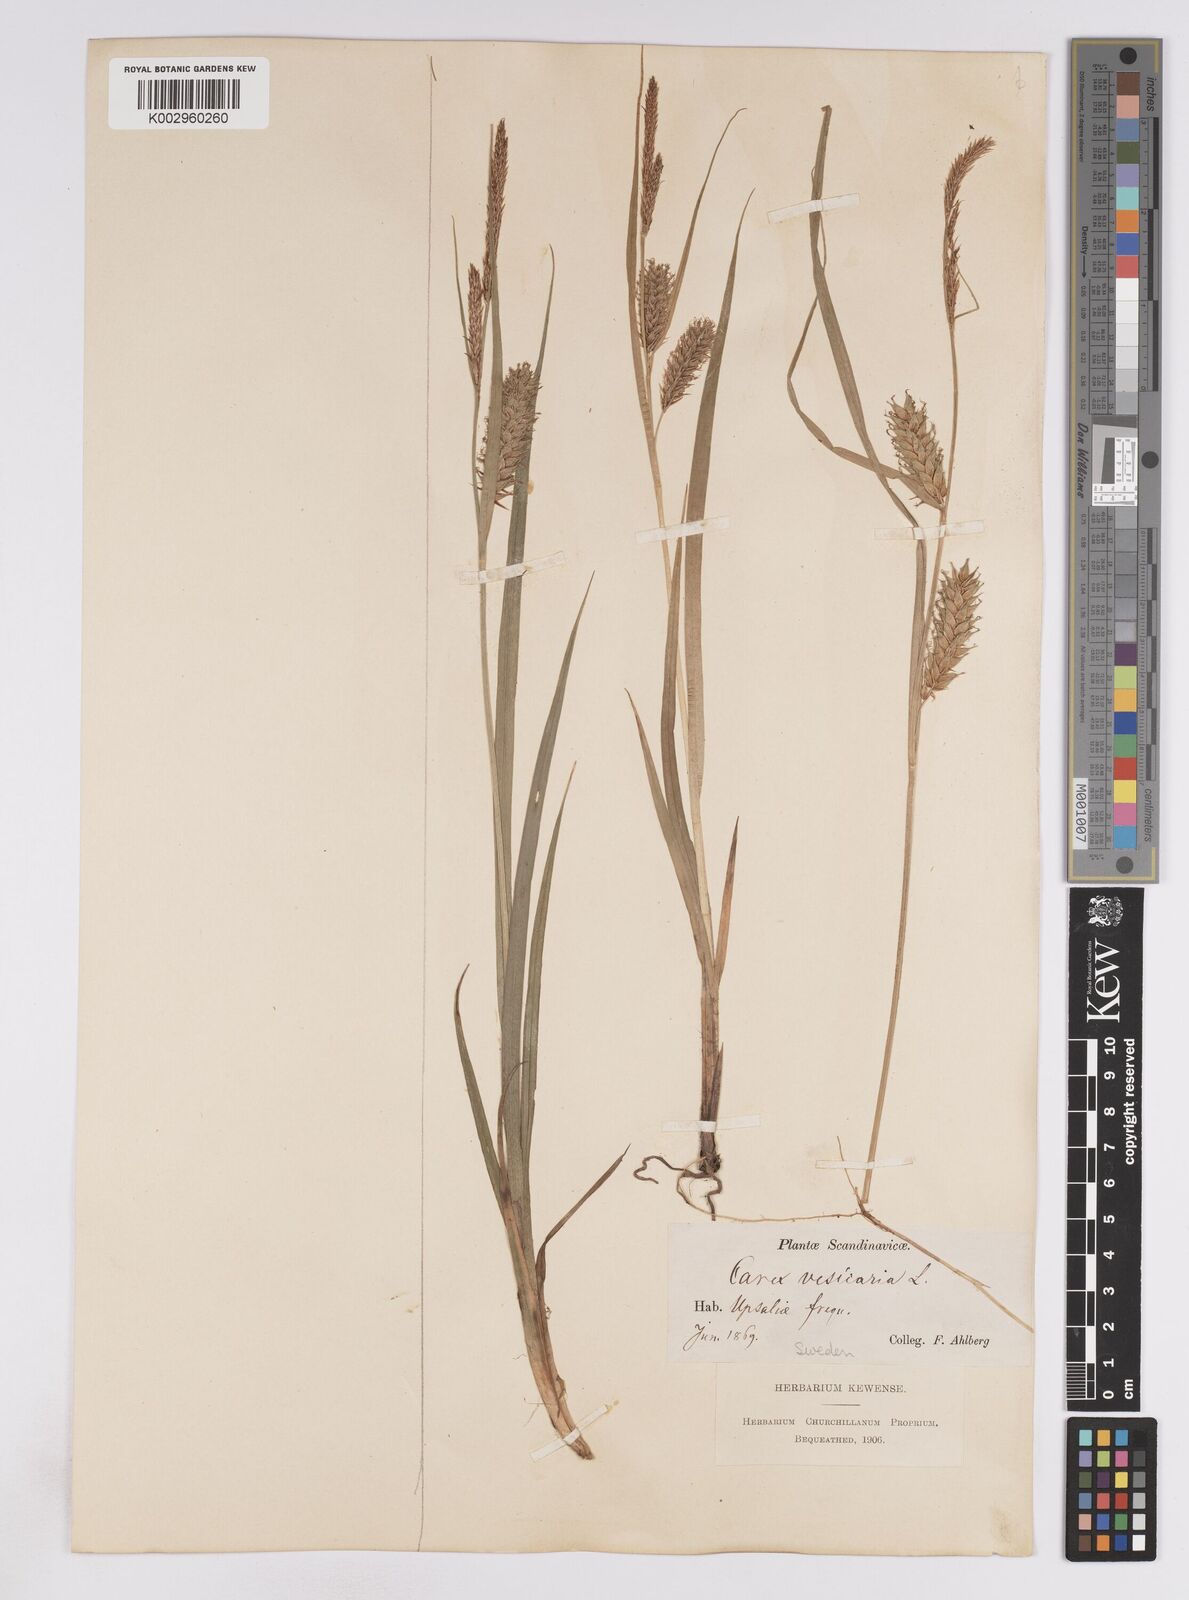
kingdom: Plantae
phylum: Tracheophyta
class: Liliopsida
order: Poales
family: Cyperaceae
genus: Carex
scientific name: Carex vesicaria
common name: Bladder-sedge
